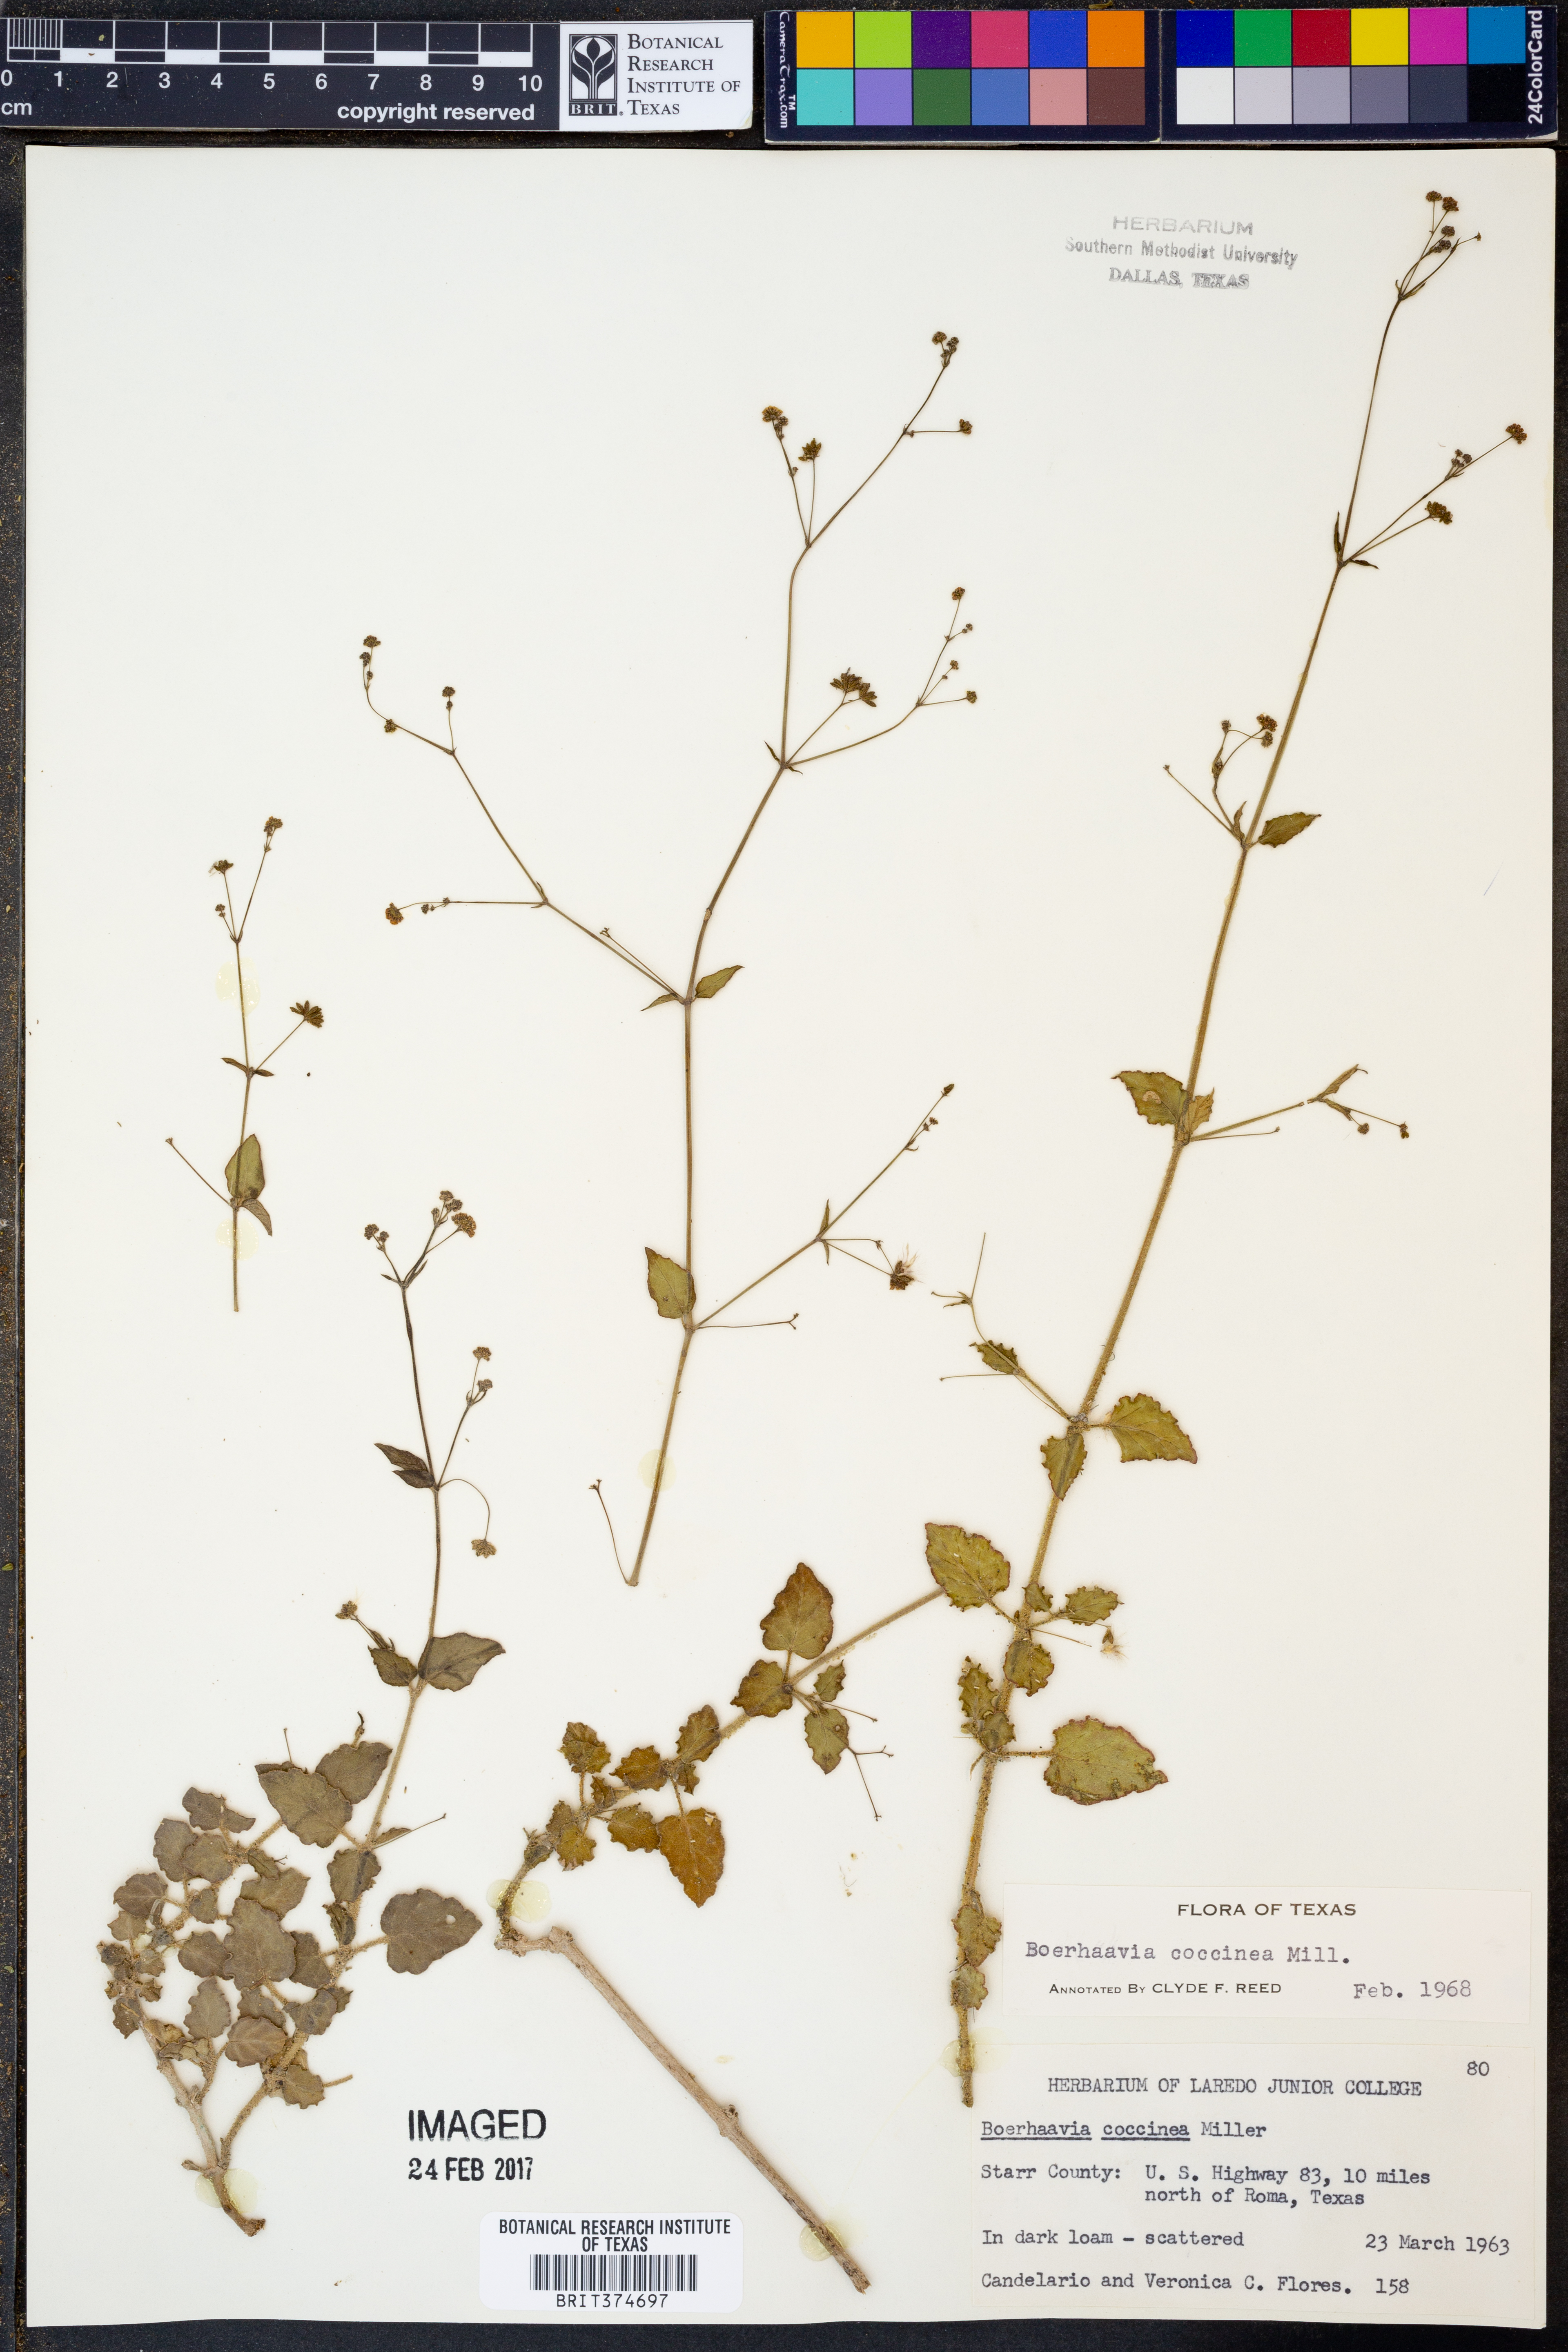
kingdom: Plantae
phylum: Tracheophyta
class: Magnoliopsida
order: Caryophyllales
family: Nyctaginaceae
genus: Boerhavia
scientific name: Boerhavia coccinea
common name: Scarlet spiderling
